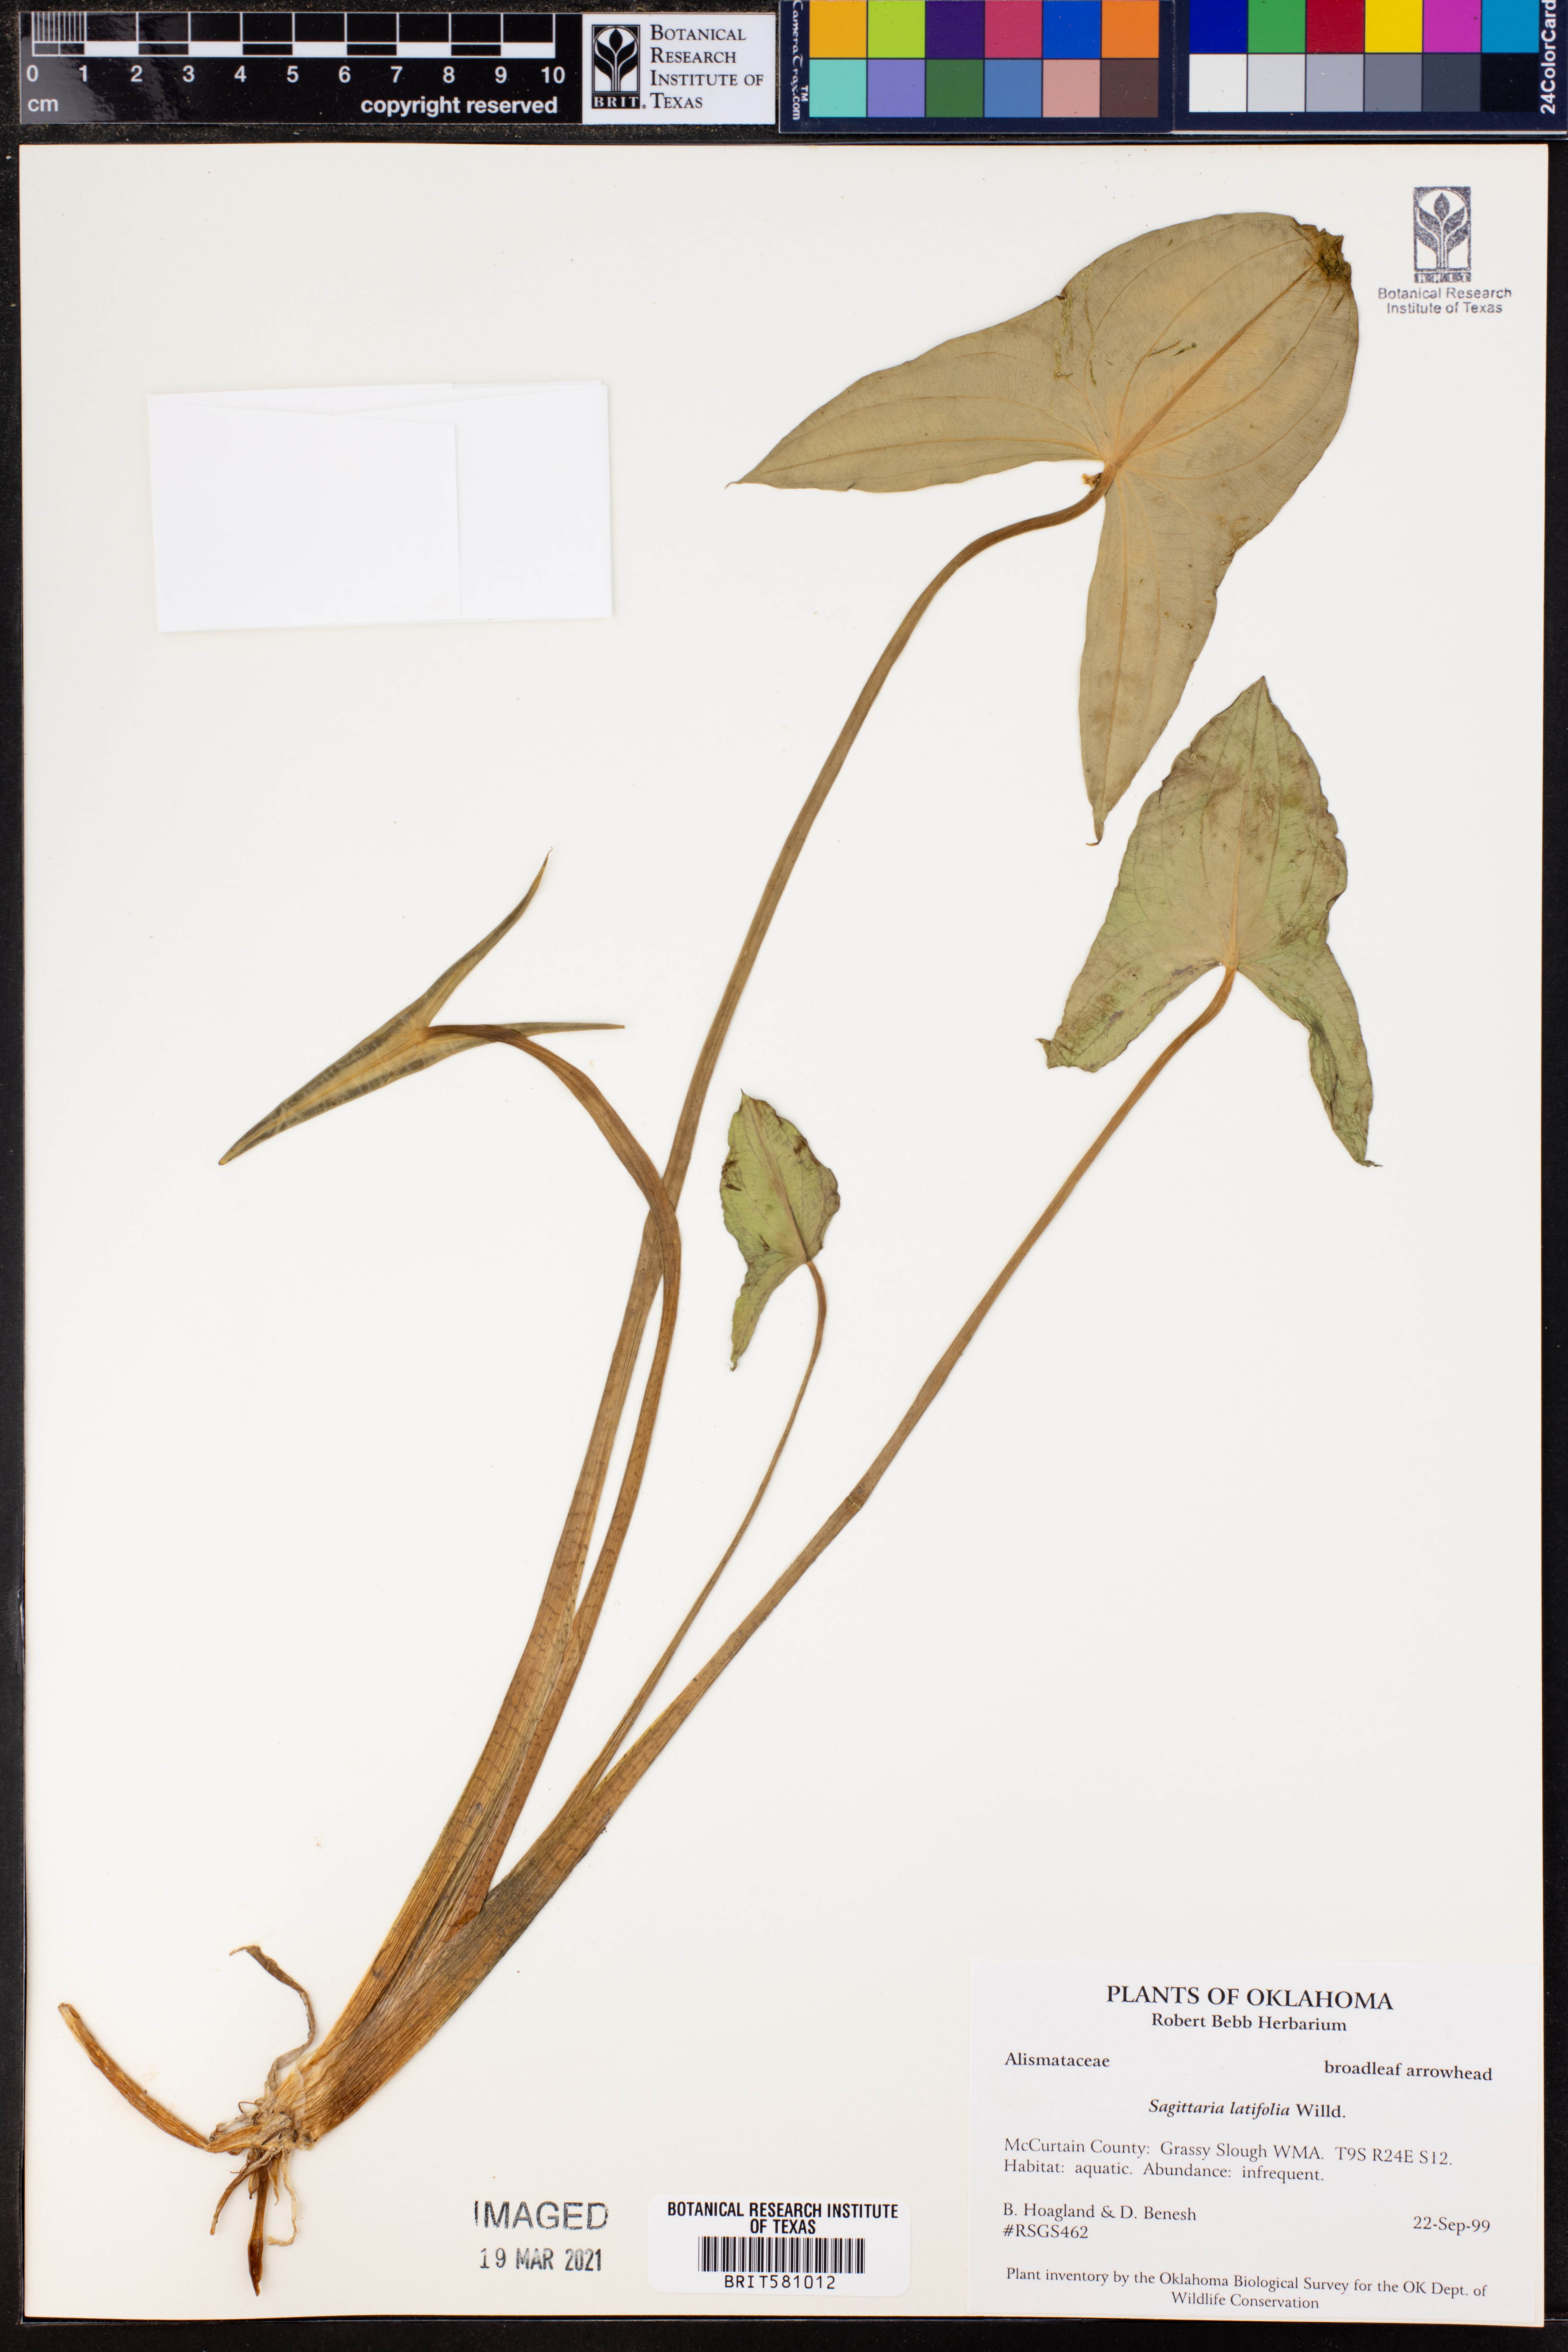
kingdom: Plantae
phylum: Tracheophyta
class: Liliopsida
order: Alismatales
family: Alismataceae
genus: Sagittaria
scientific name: Sagittaria latifolia
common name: Duck-potato
